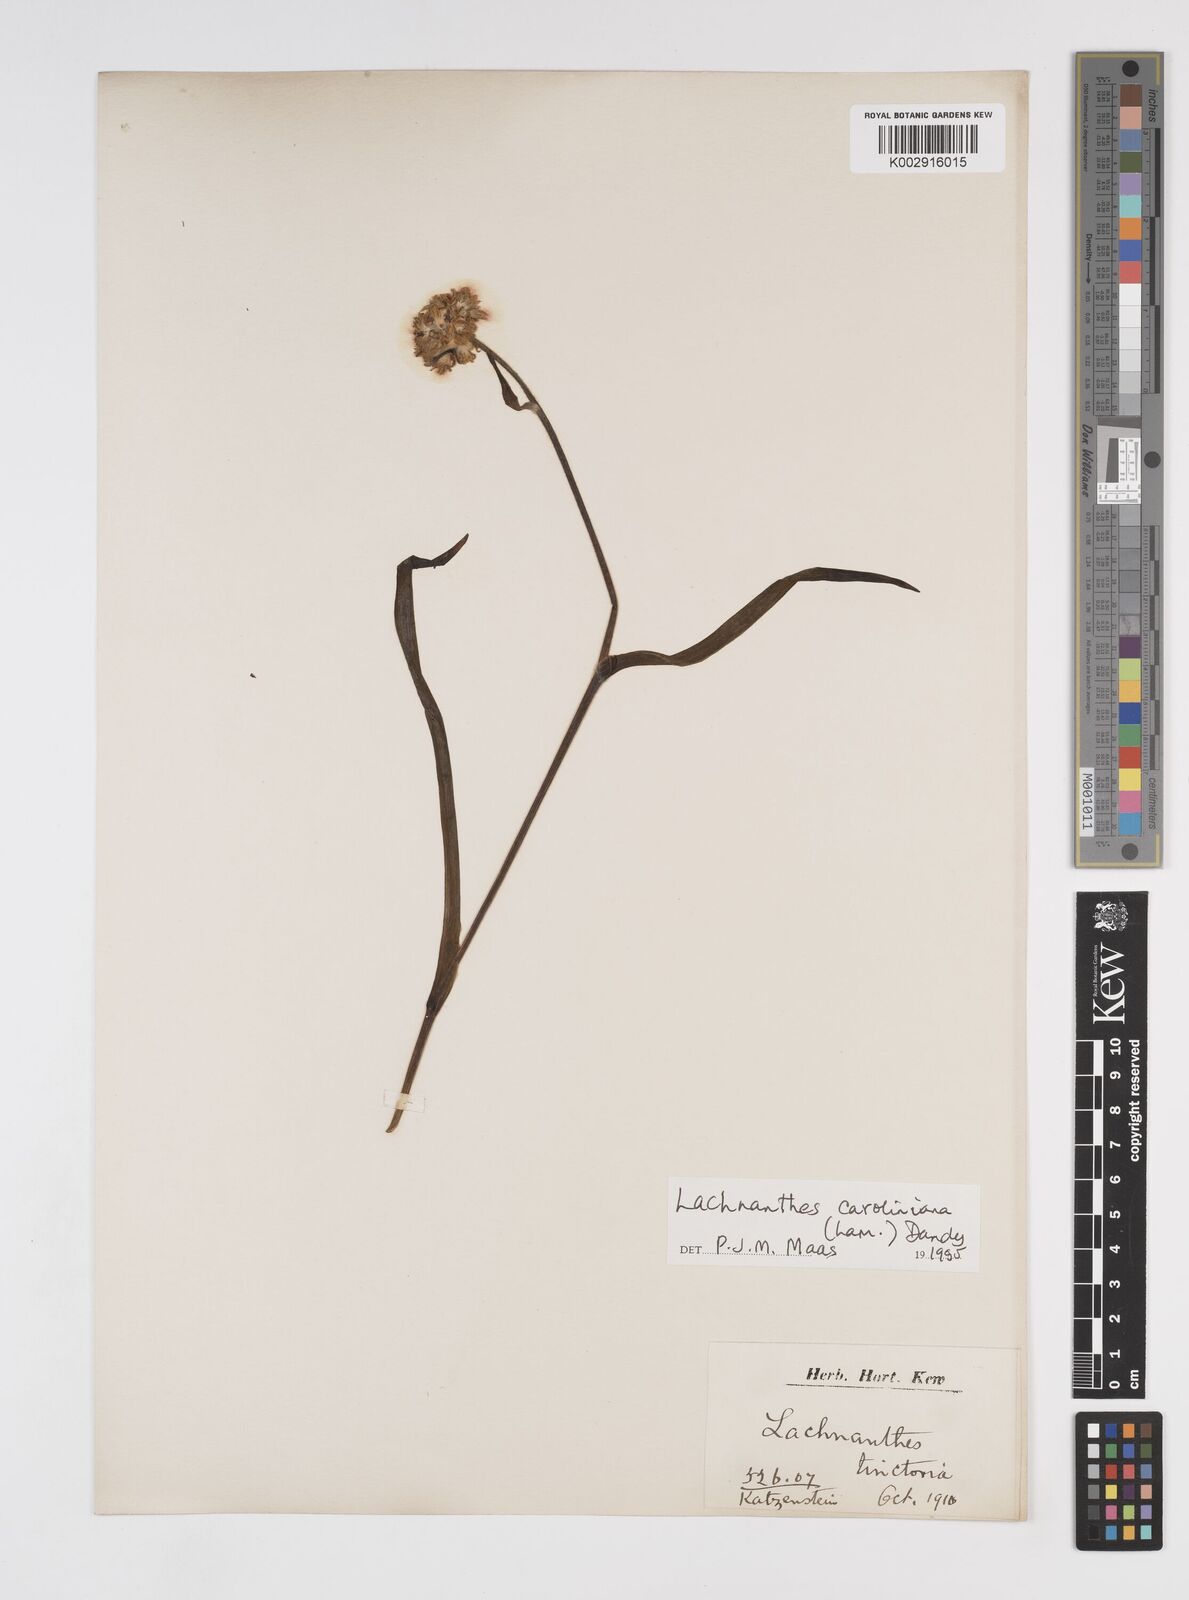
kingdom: Plantae
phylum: Tracheophyta
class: Liliopsida
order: Commelinales
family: Haemodoraceae
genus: Lachnanthes
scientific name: Lachnanthes caroliniana
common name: Carolina redroot
